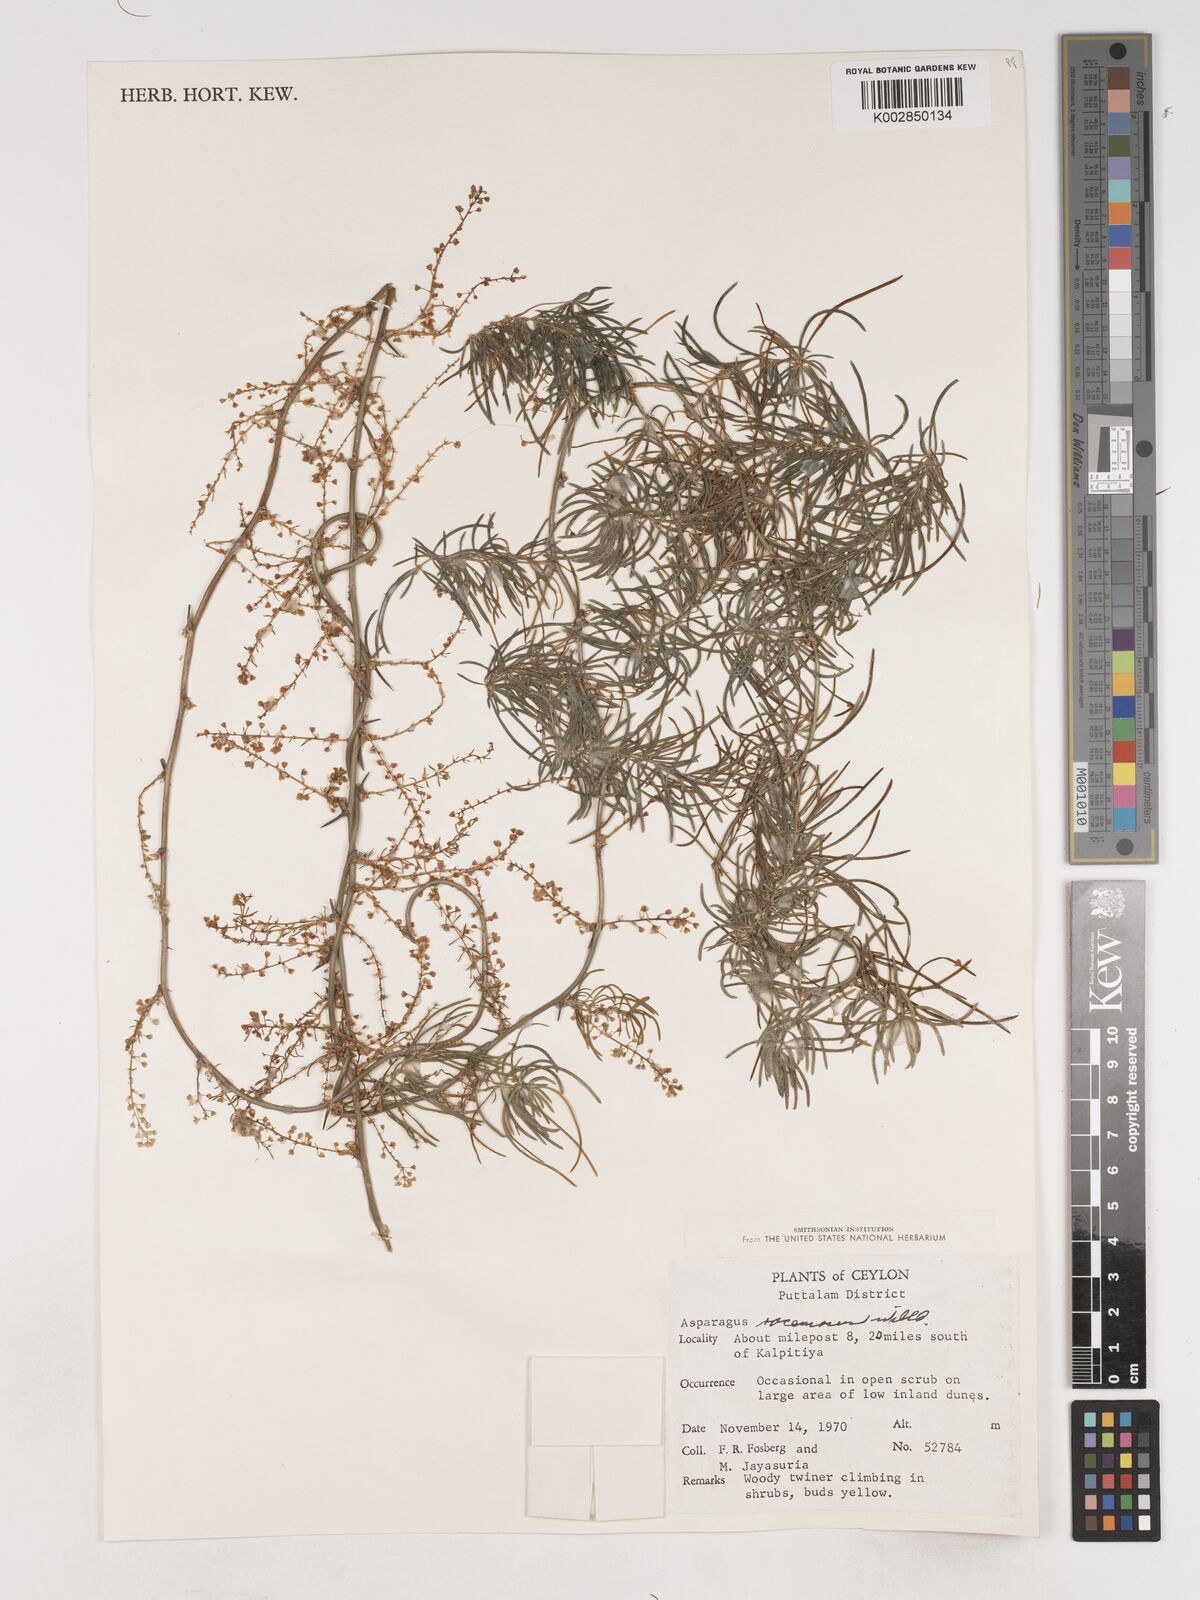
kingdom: Plantae
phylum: Tracheophyta
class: Liliopsida
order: Asparagales
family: Asparagaceae
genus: Asparagus
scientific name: Asparagus racemosus
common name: Asparagus-fern
